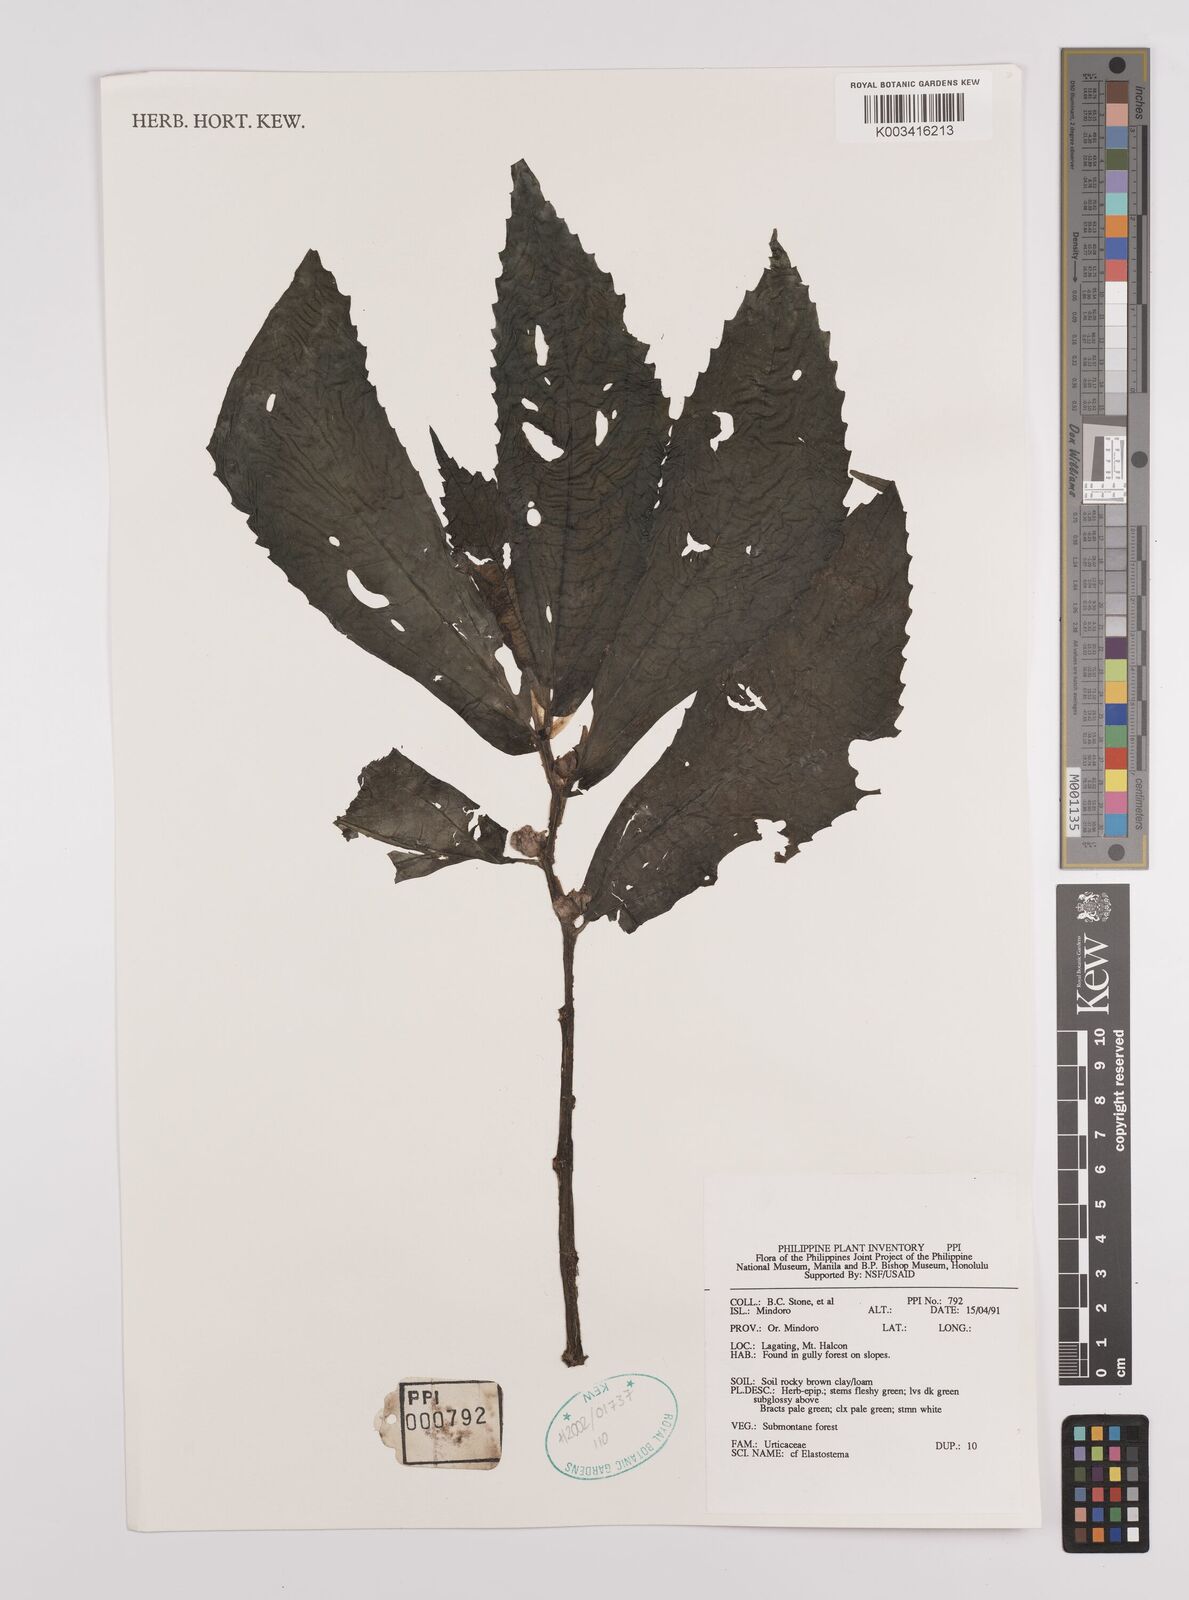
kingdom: Plantae
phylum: Tracheophyta
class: Magnoliopsida
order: Rosales
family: Urticaceae
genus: Elatostema
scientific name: Elatostema
